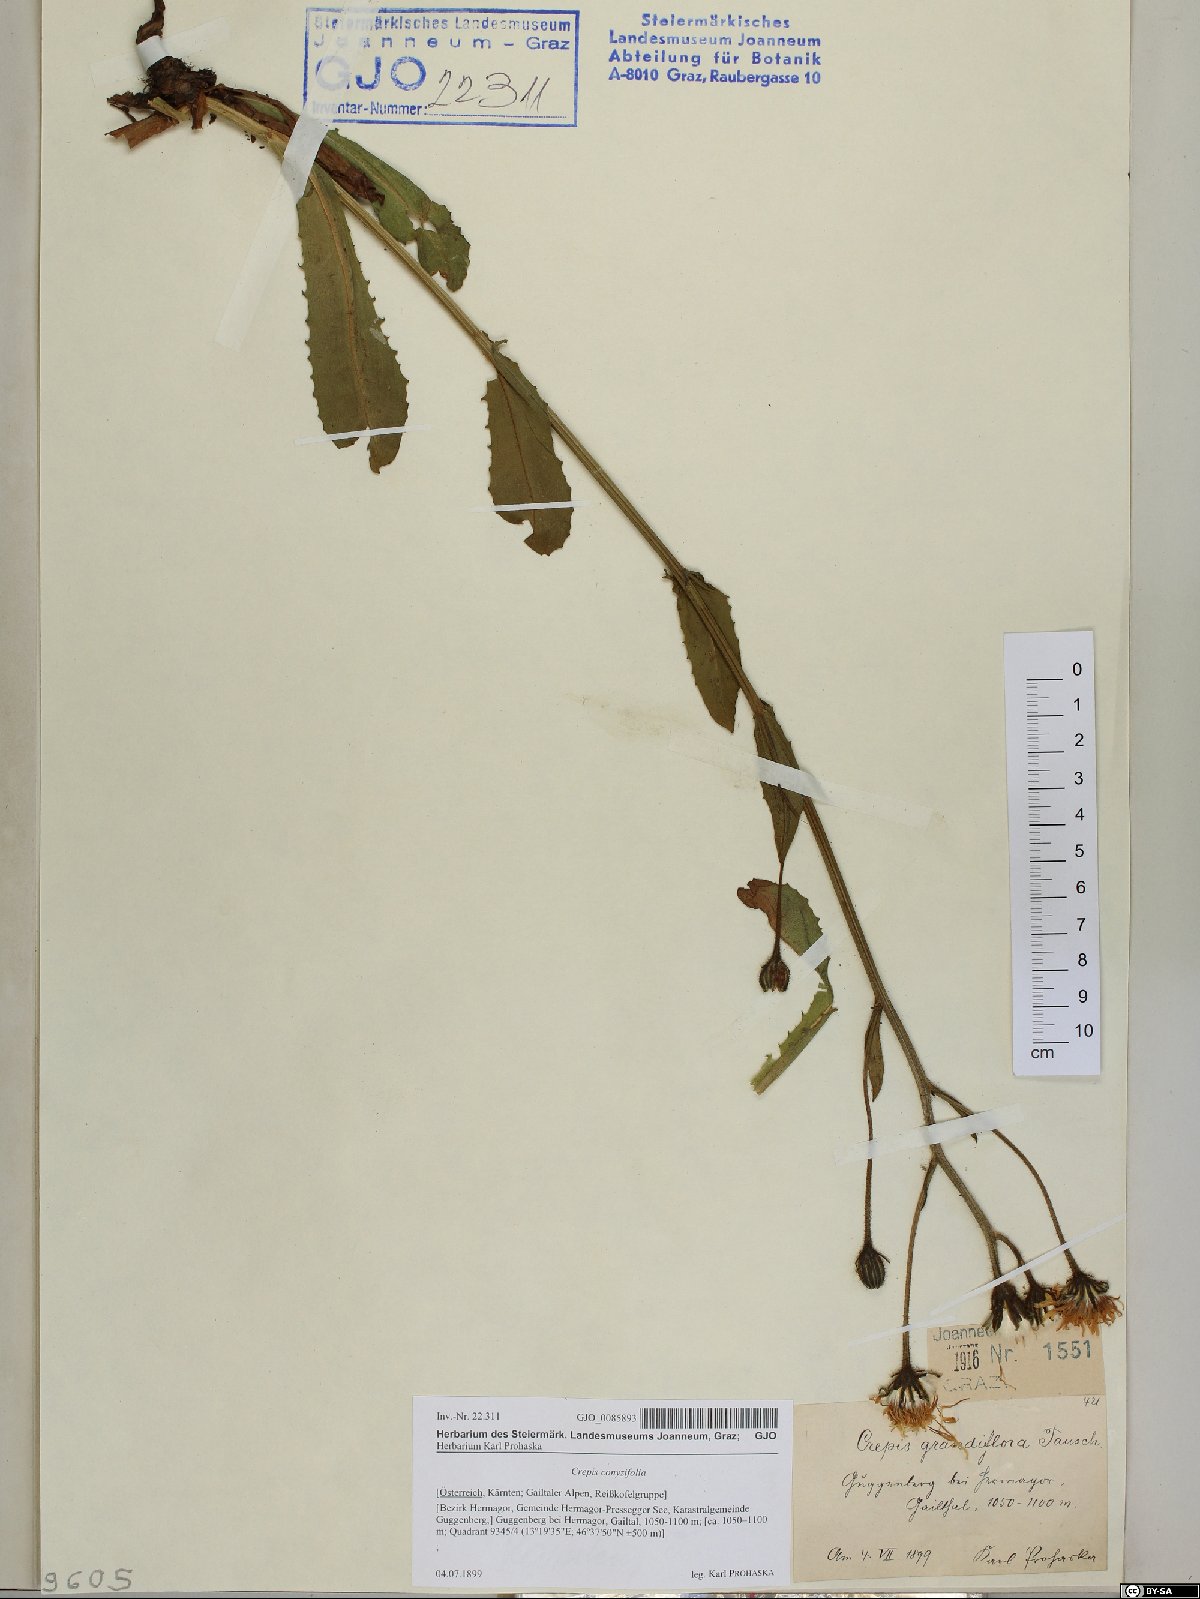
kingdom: Plantae
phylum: Tracheophyta
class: Magnoliopsida
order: Asterales
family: Asteraceae
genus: Crepis
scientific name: Crepis blattarioides
